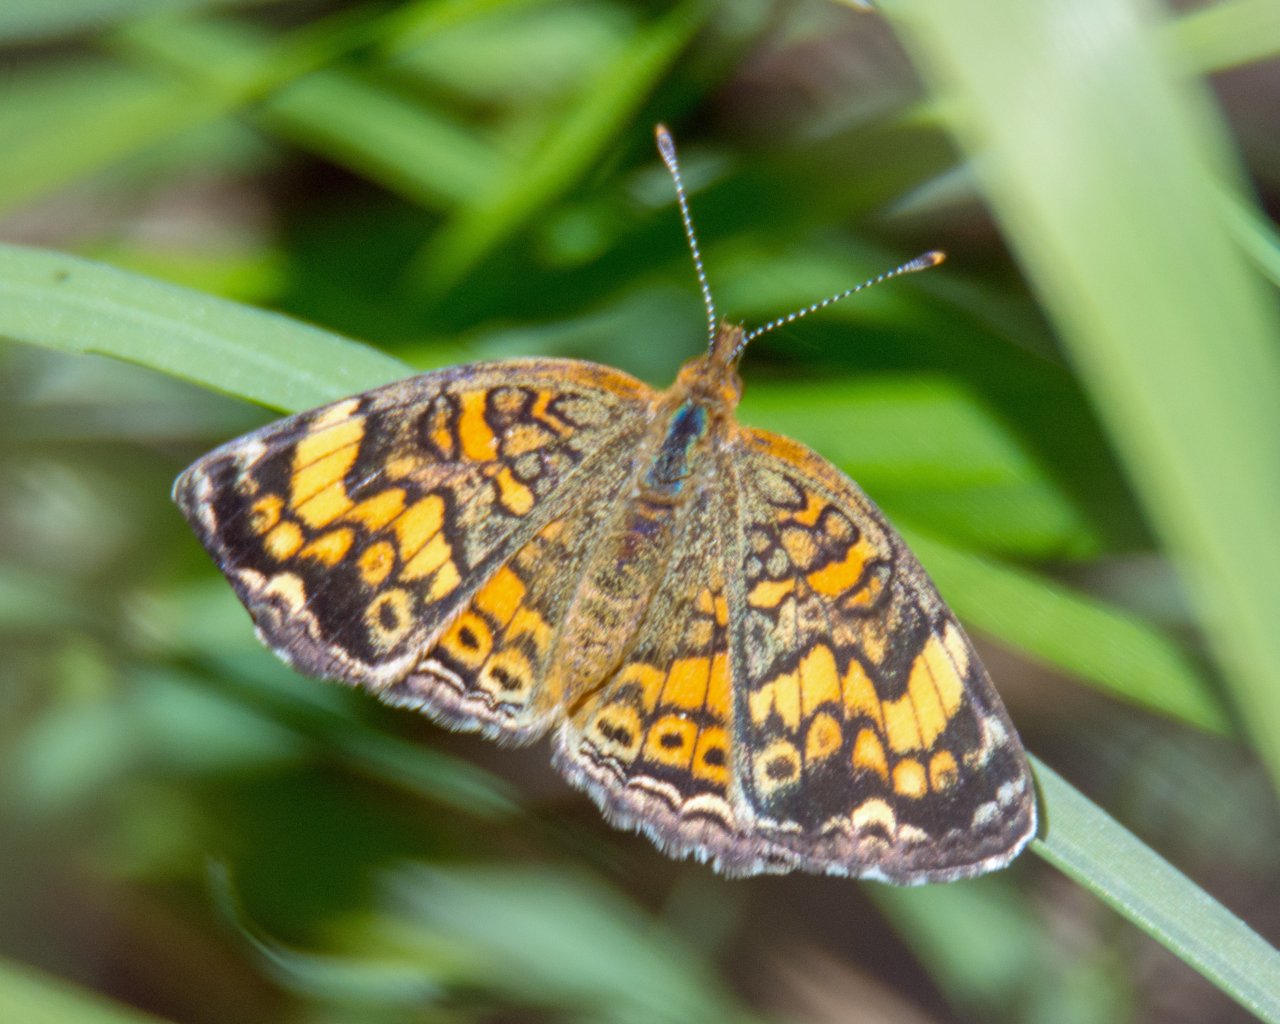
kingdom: Animalia
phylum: Arthropoda
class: Insecta
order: Lepidoptera
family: Nymphalidae
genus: Phyciodes
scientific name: Phyciodes tharos
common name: Pearl Crescent
